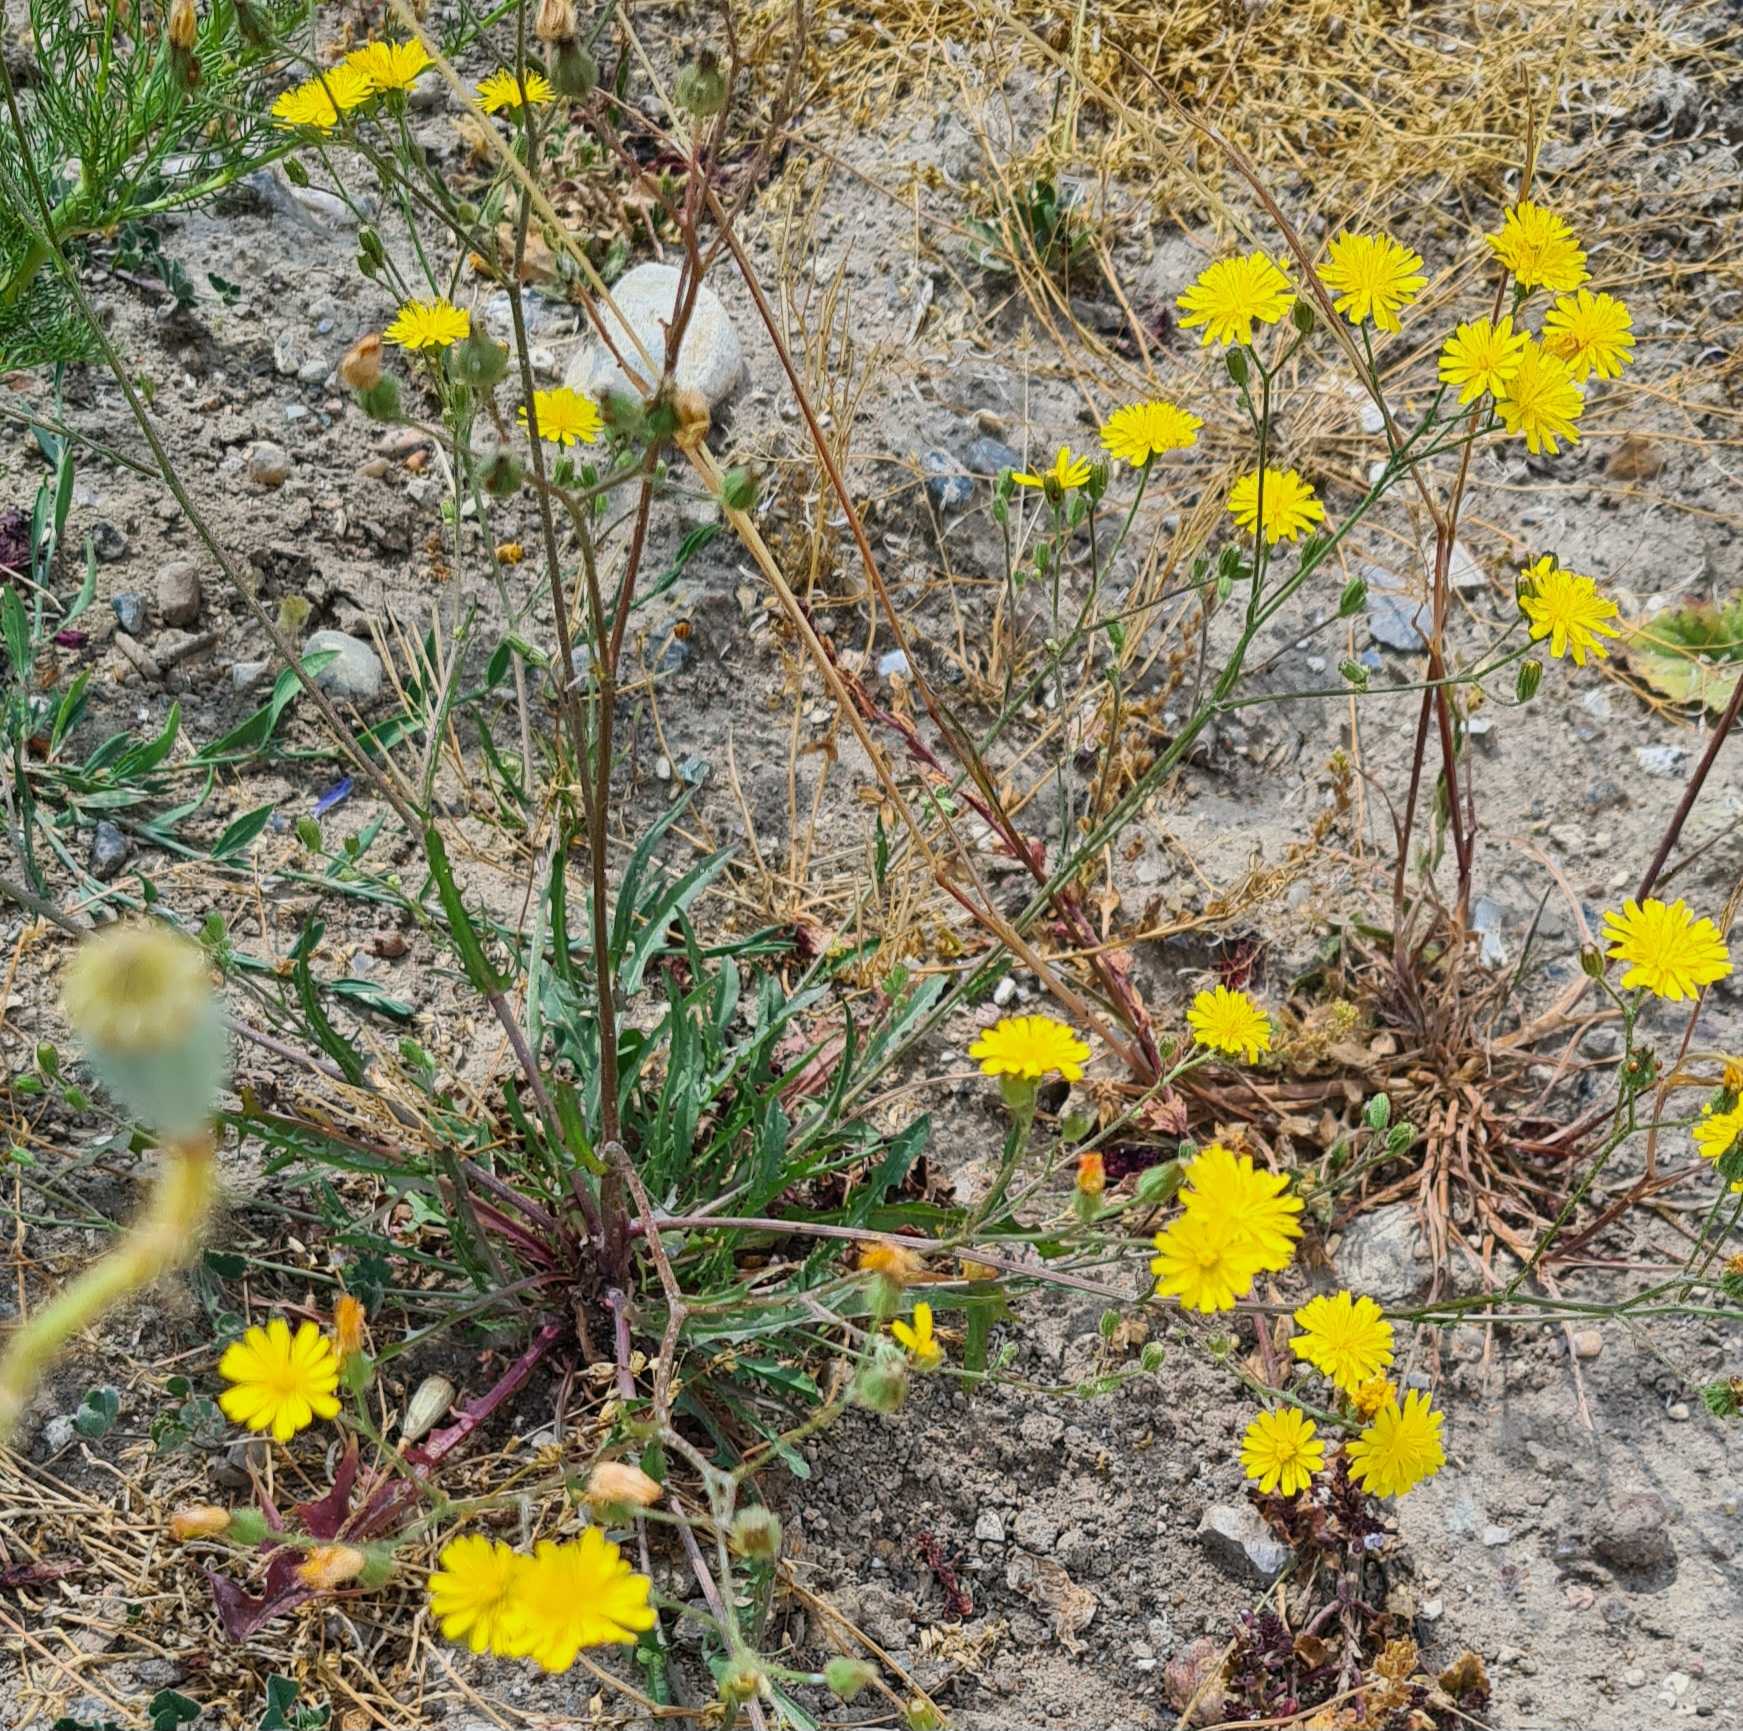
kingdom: Plantae
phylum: Tracheophyta
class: Magnoliopsida
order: Asterales
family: Asteraceae
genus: Crepis
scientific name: Crepis capillaris
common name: Grøn høgeskæg
